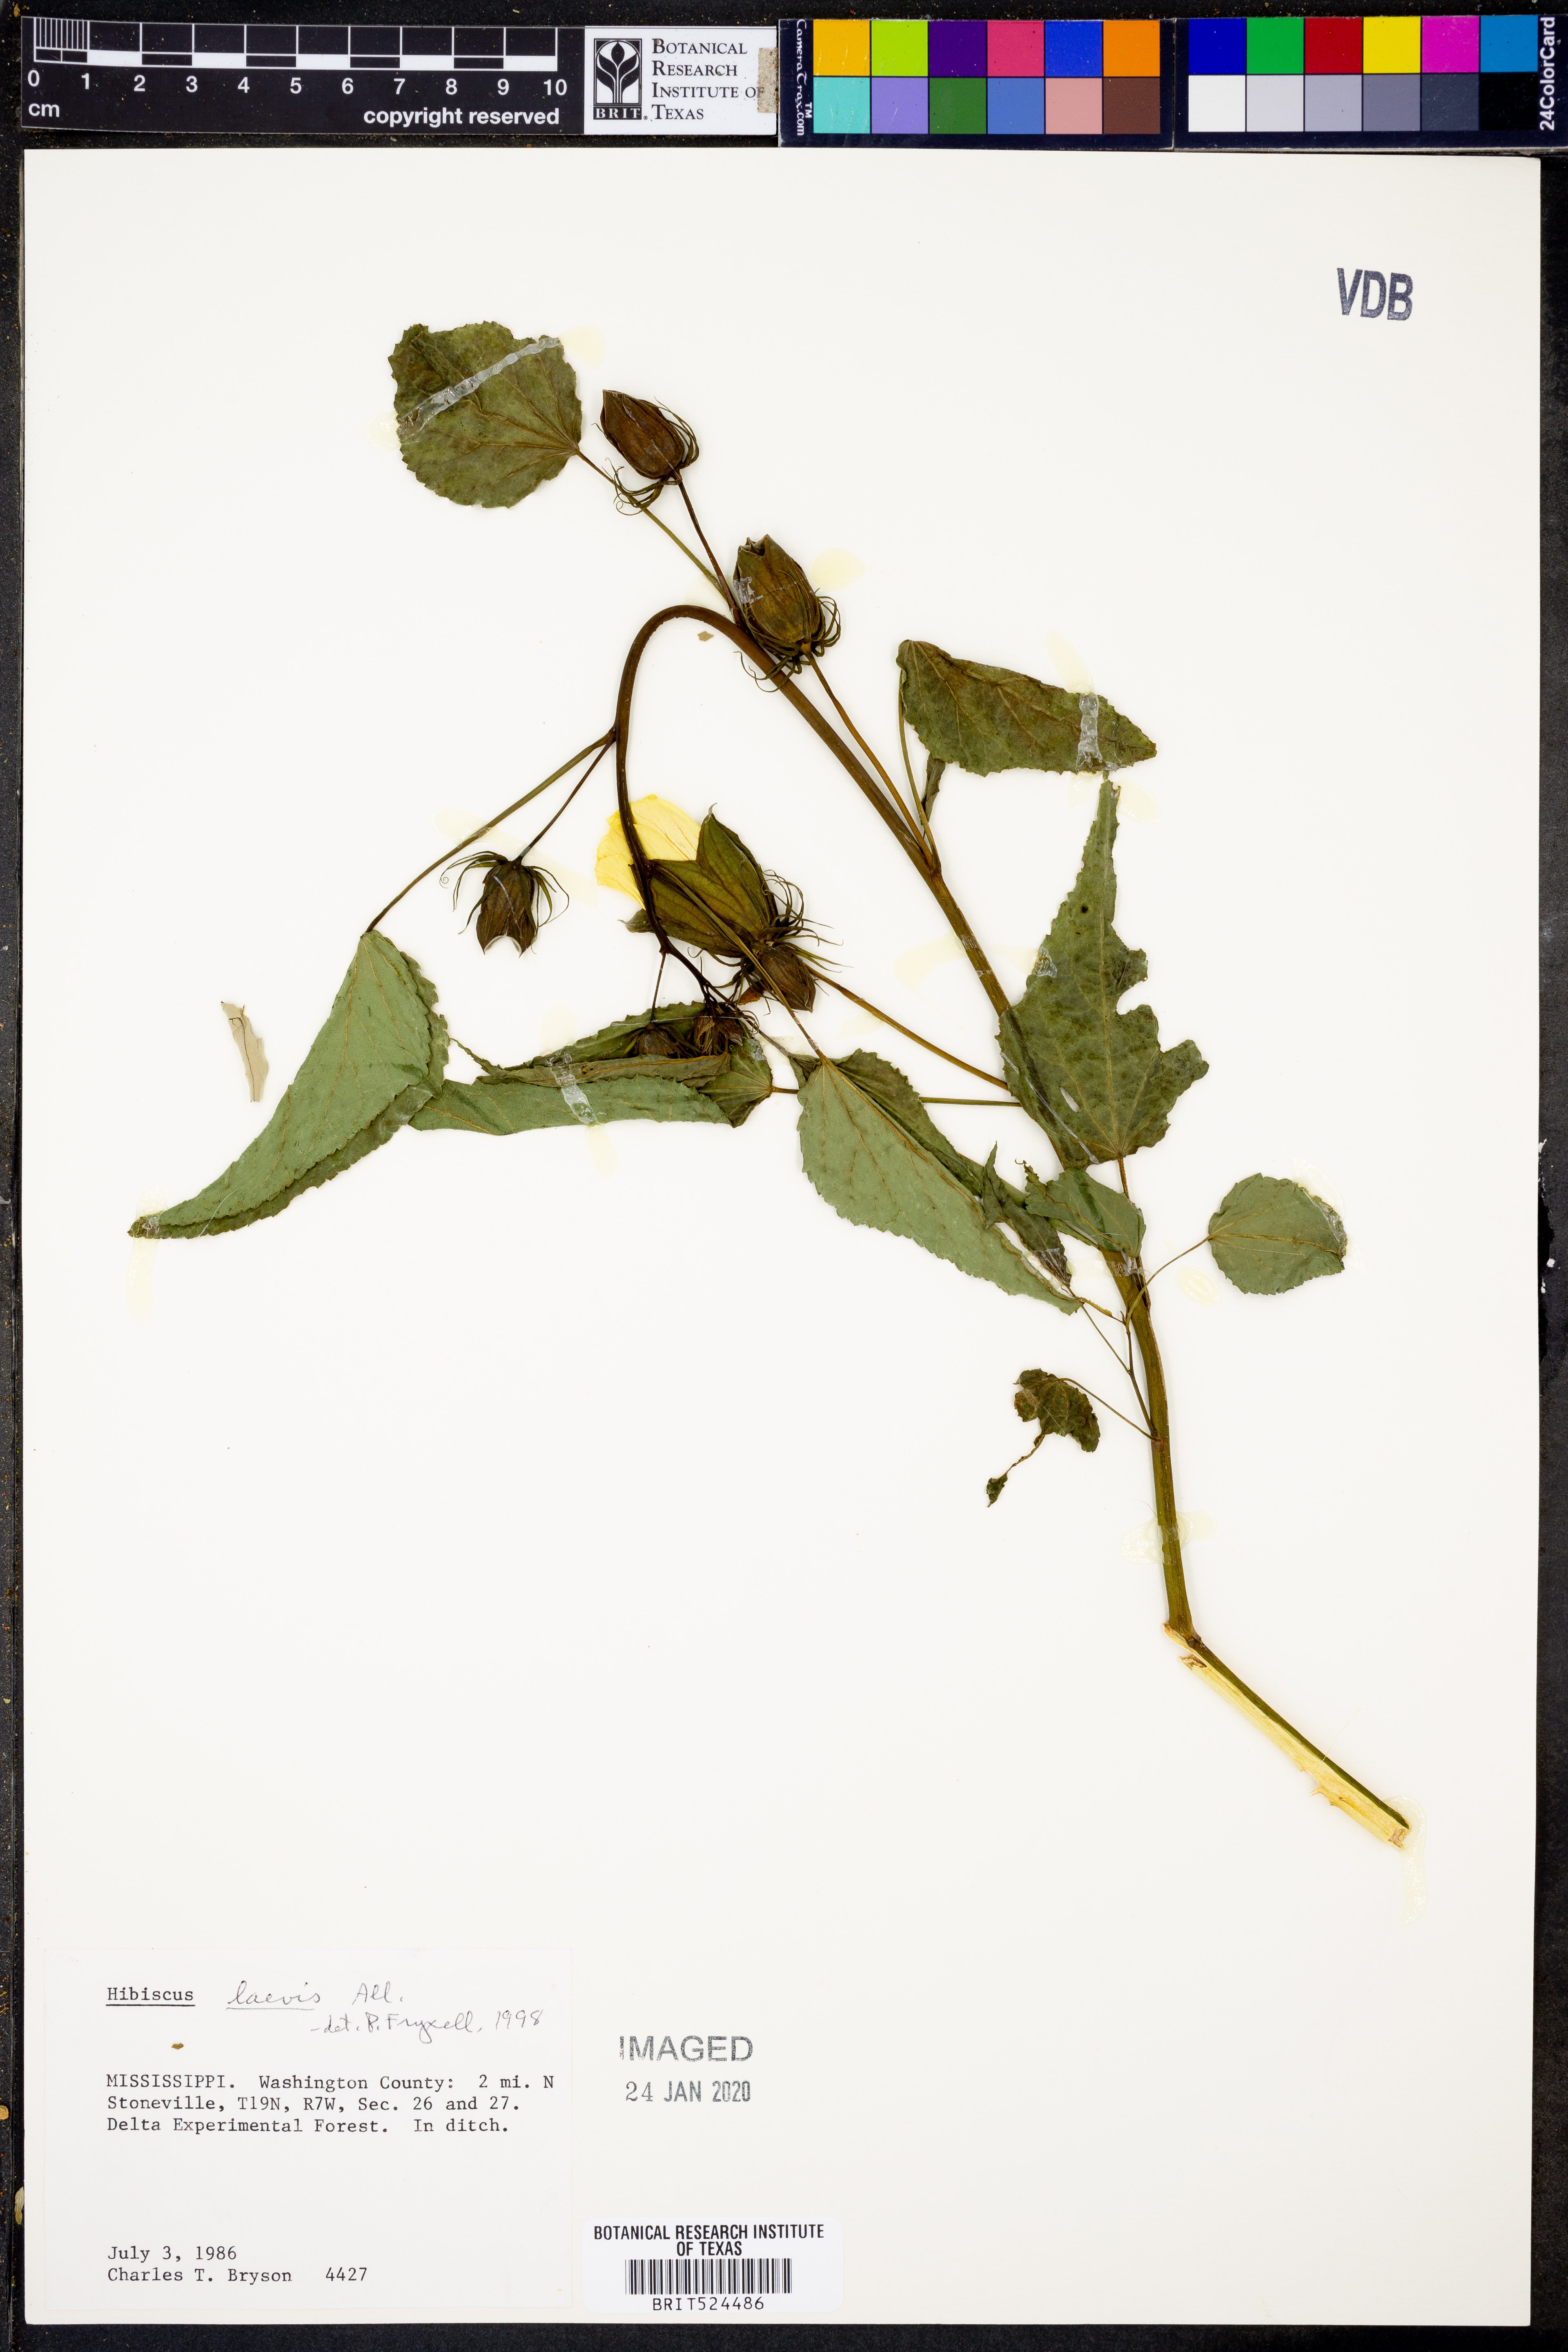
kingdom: Plantae
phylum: Tracheophyta
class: Magnoliopsida
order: Malvales
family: Malvaceae
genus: Hibiscus
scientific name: Hibiscus laevis
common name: Scarlet rose-mallow
